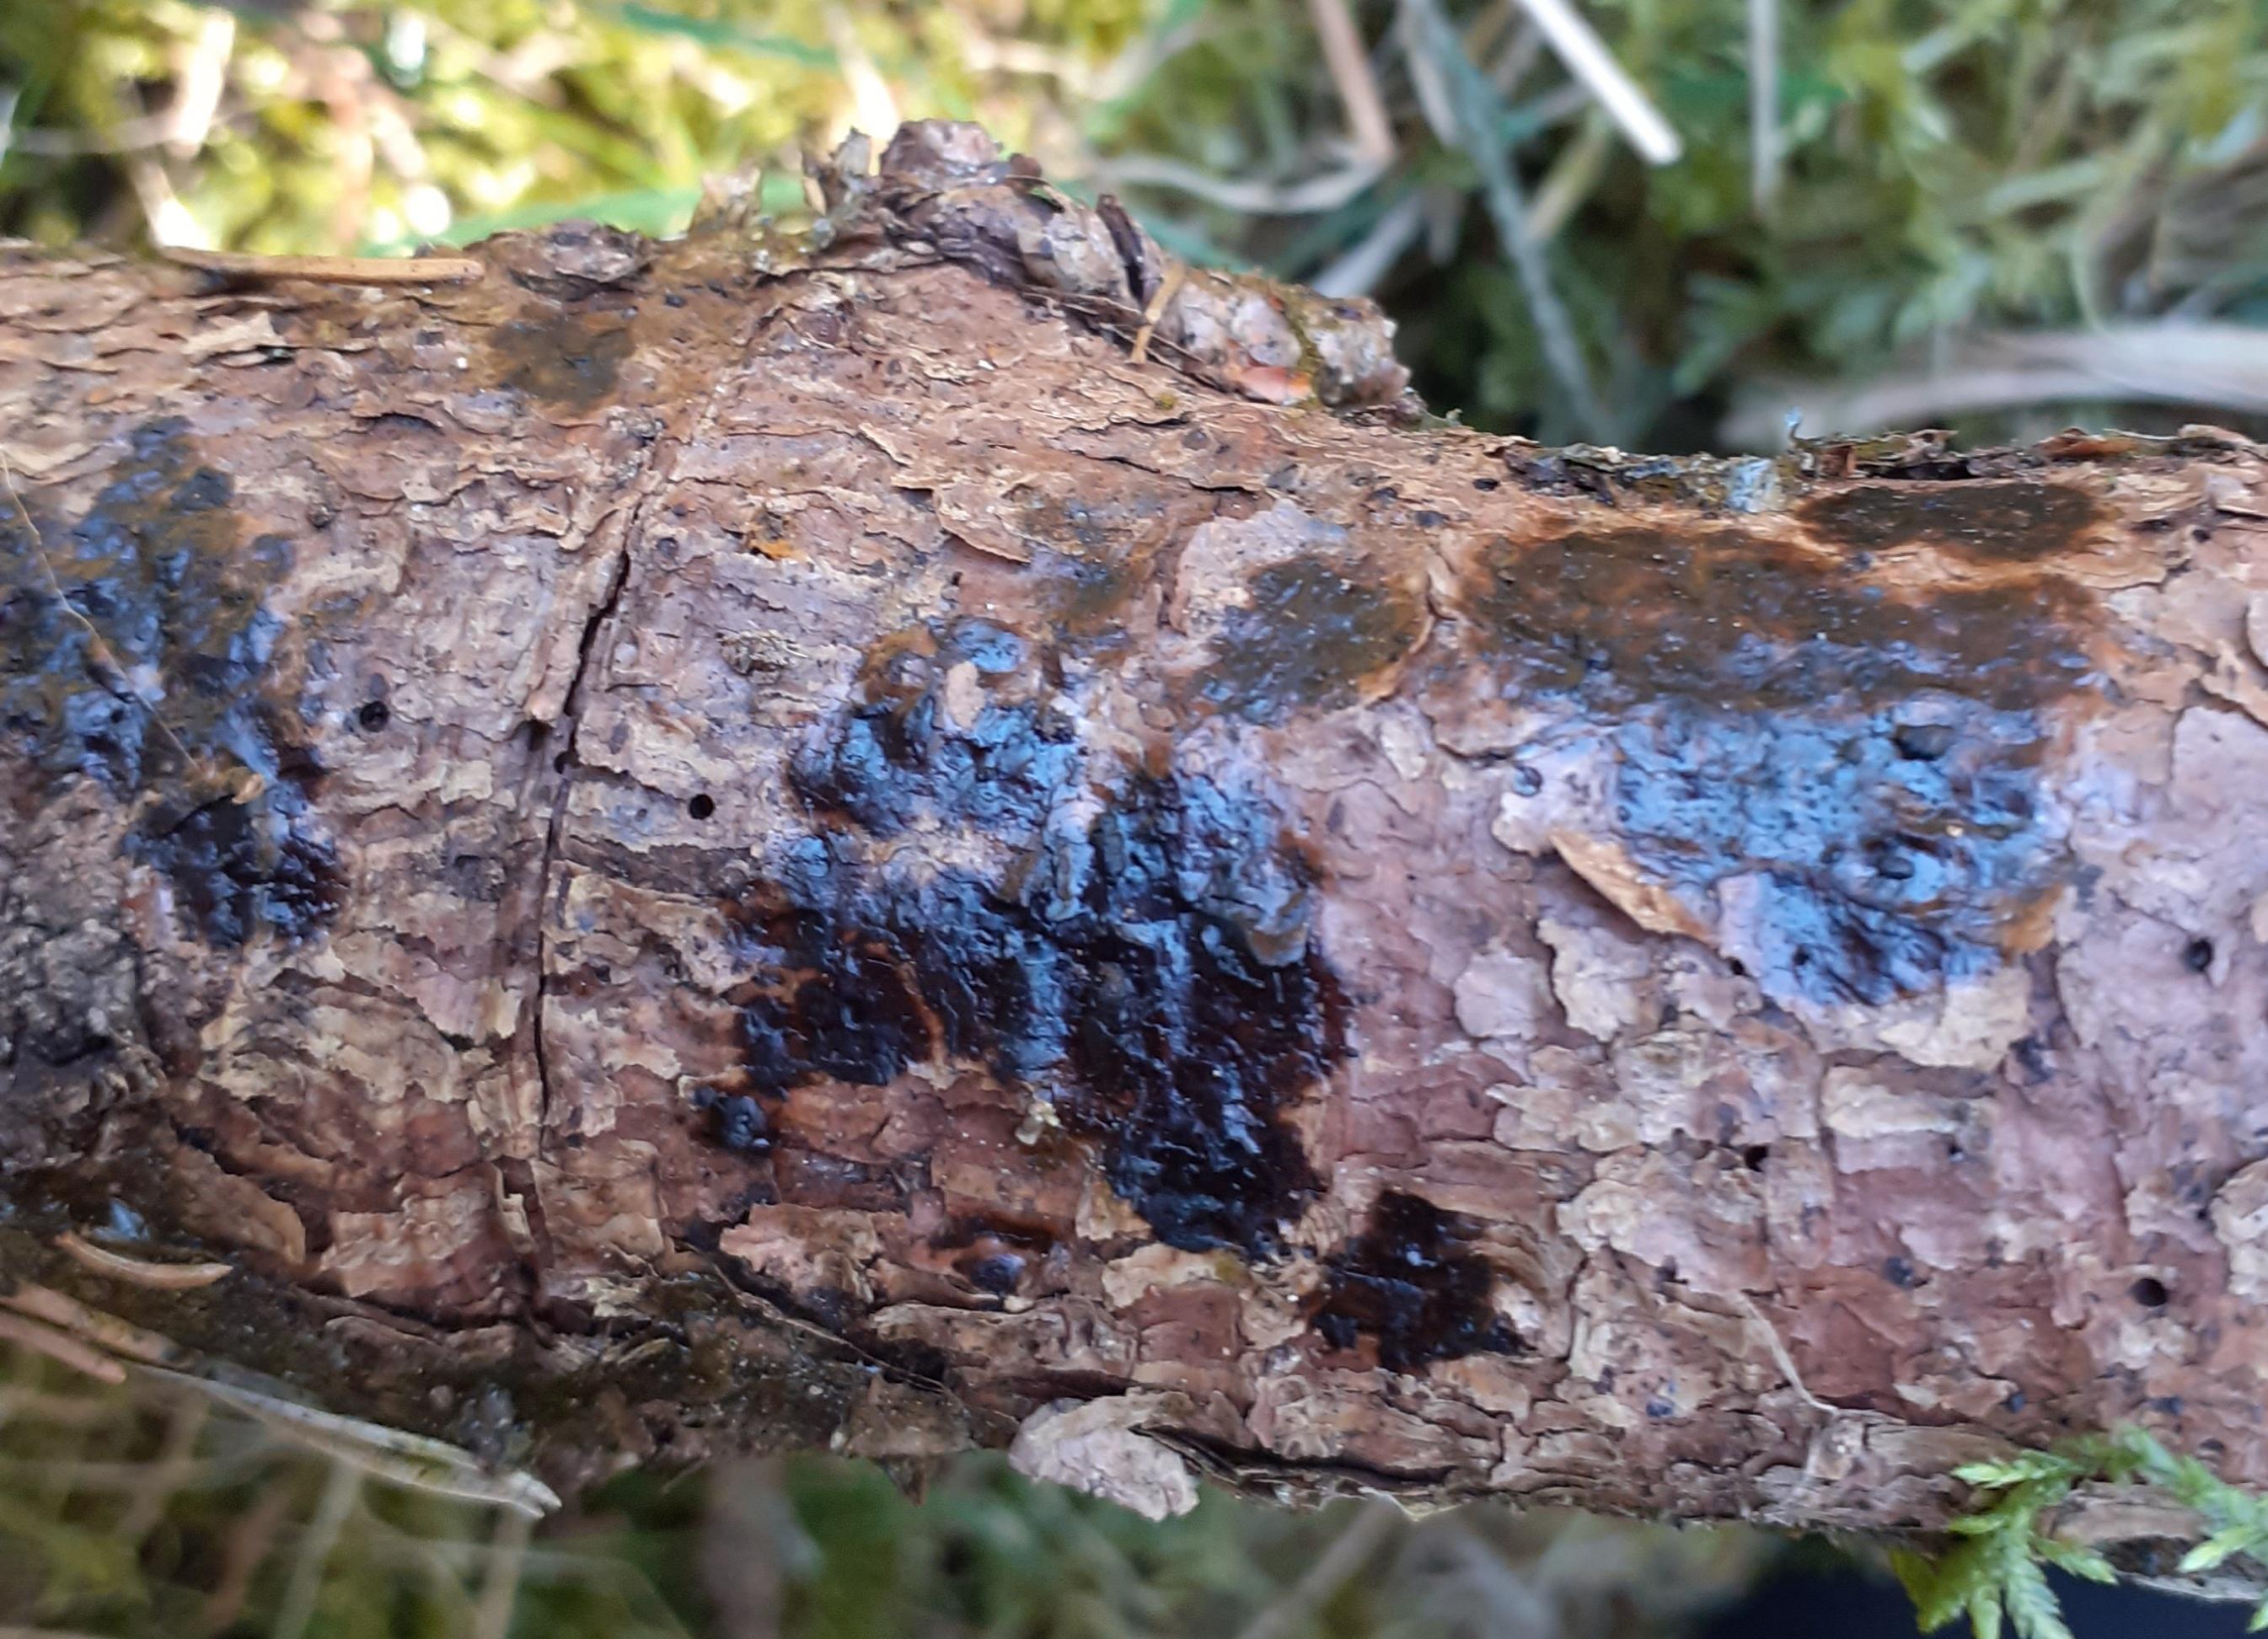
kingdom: Fungi
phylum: Basidiomycota
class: Agaricomycetes
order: Auriculariales
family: Auriculariaceae
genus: Exidia
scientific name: Exidia pithya
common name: gran-bævretop
